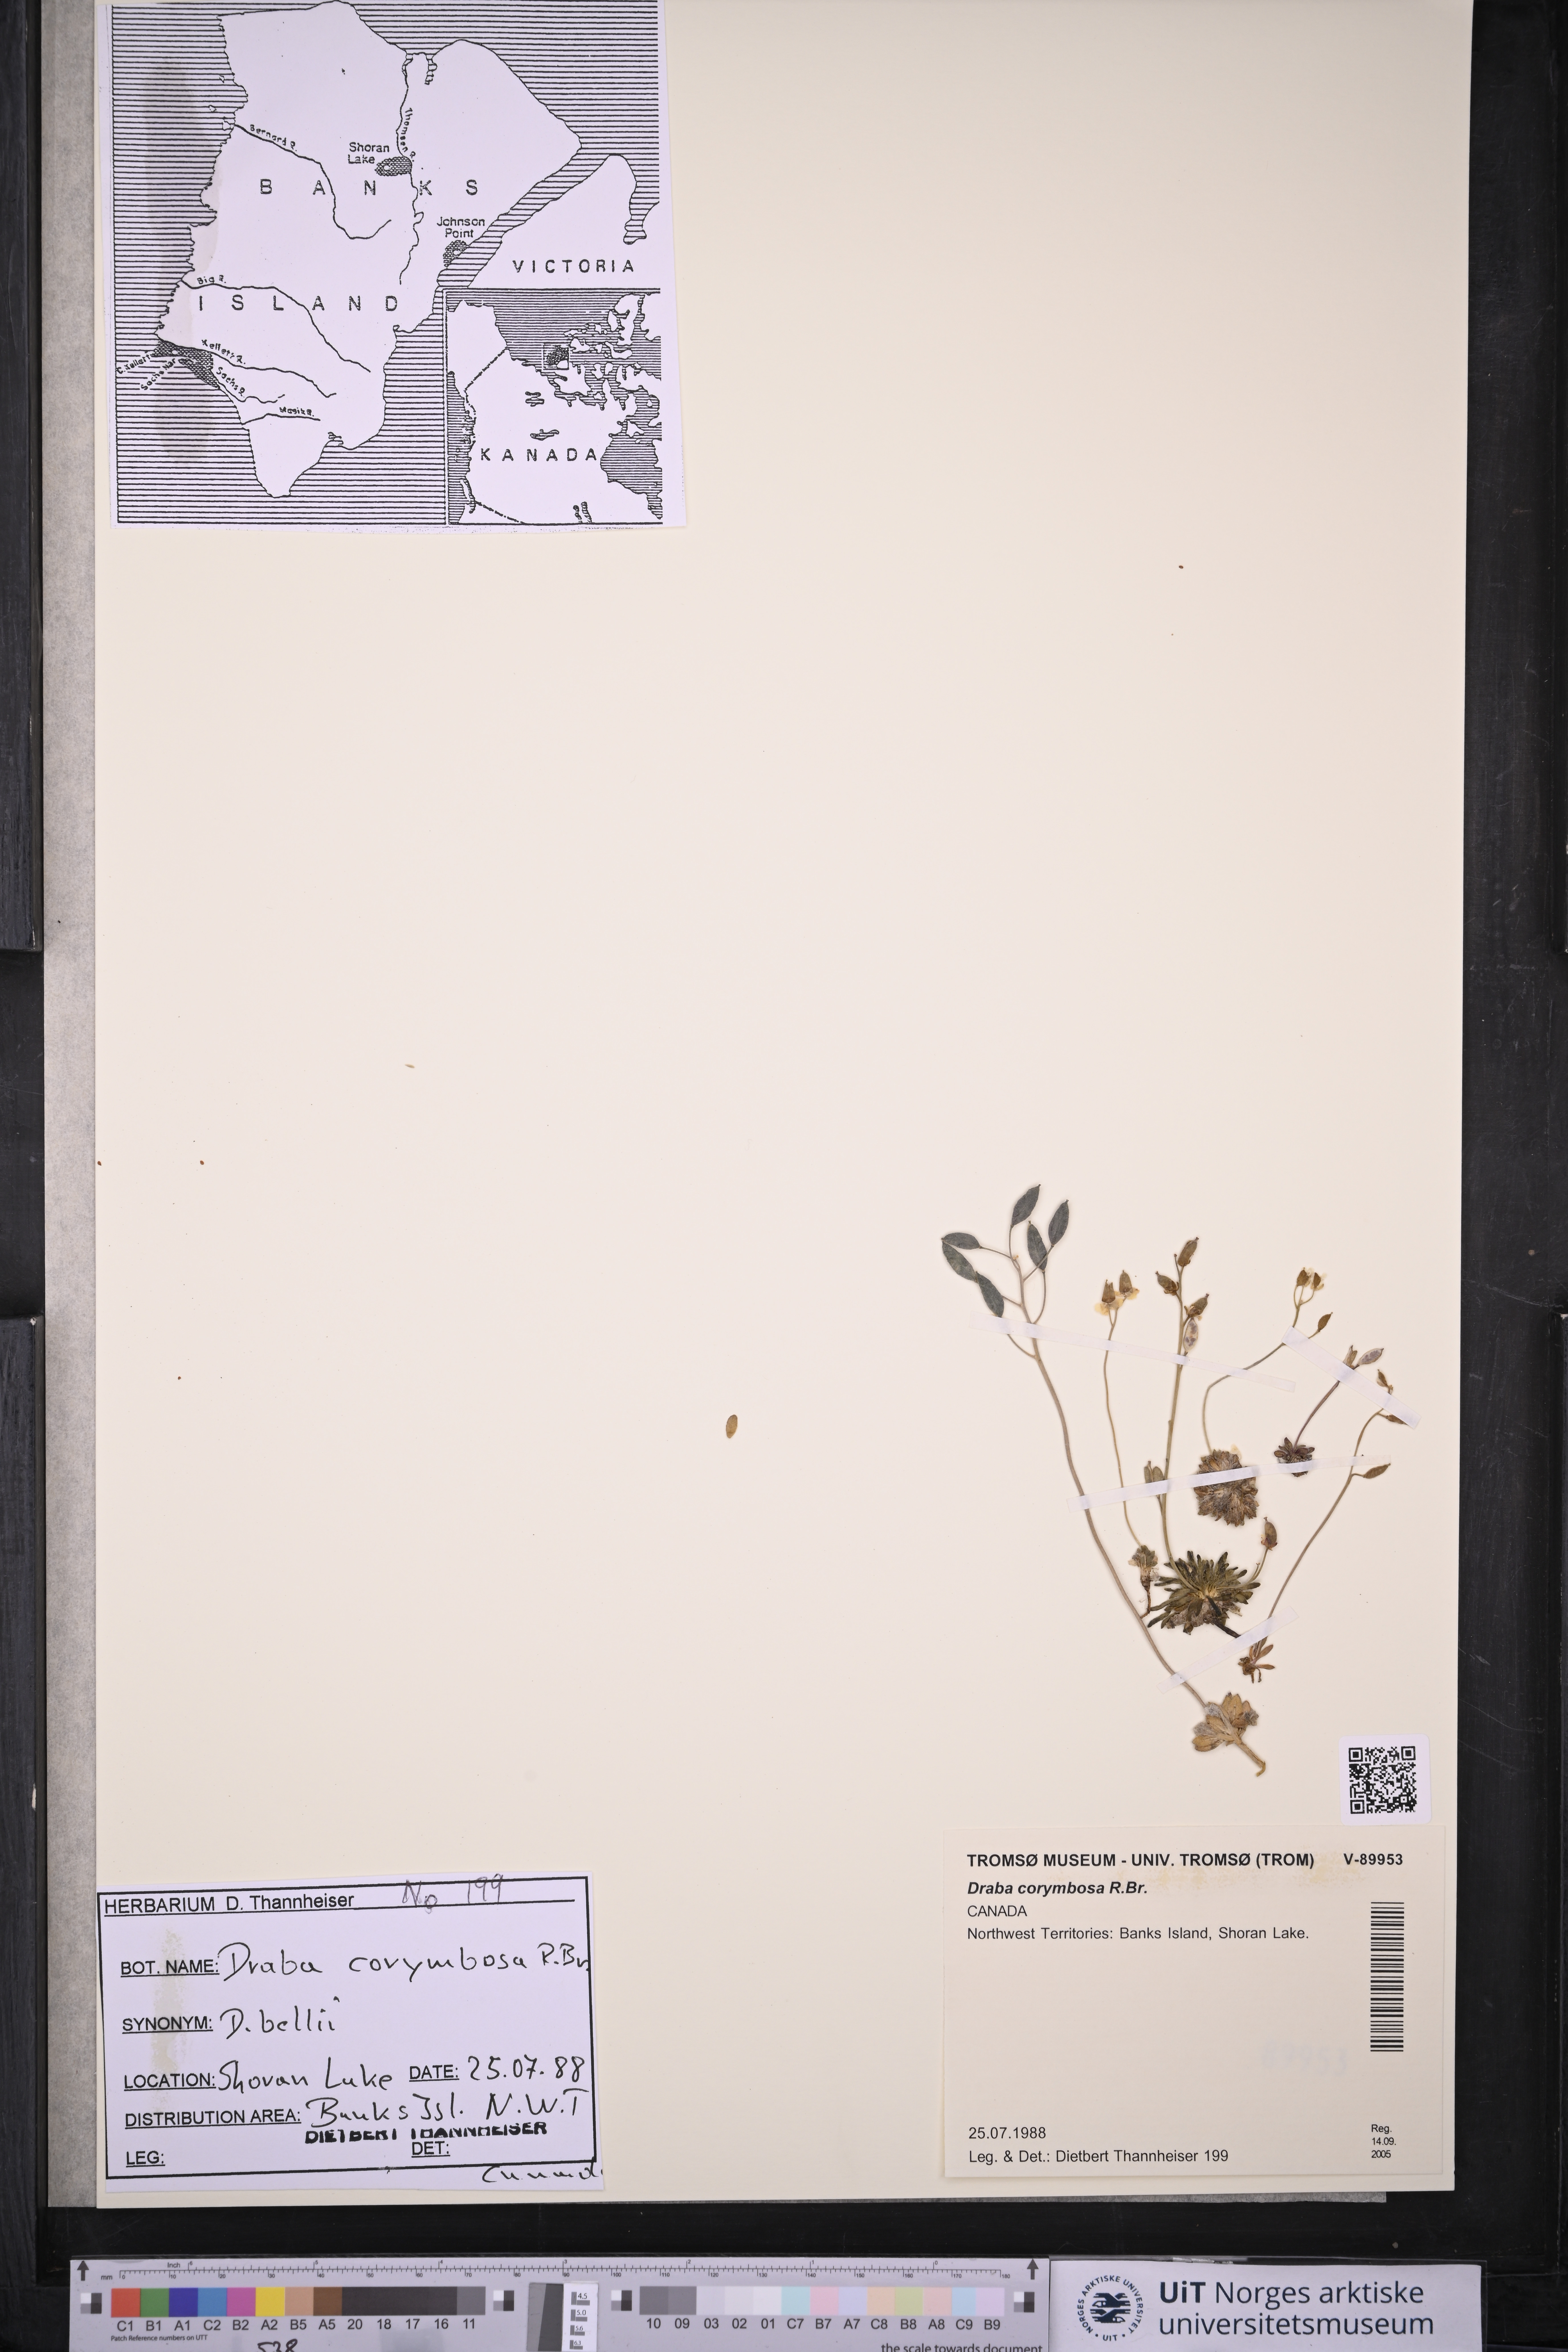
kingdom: Plantae
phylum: Tracheophyta
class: Magnoliopsida
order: Brassicales
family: Brassicaceae
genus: Draba
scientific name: Draba corymbosa
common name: Cushion whitlow-grass
